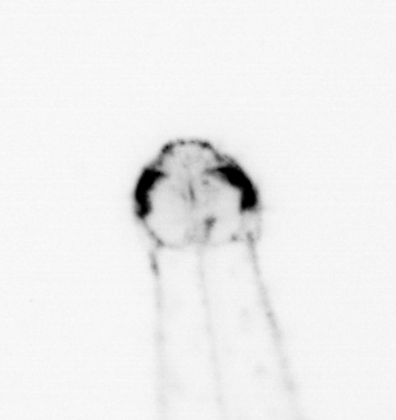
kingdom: Animalia
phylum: Chaetognatha
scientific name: Chaetognatha
